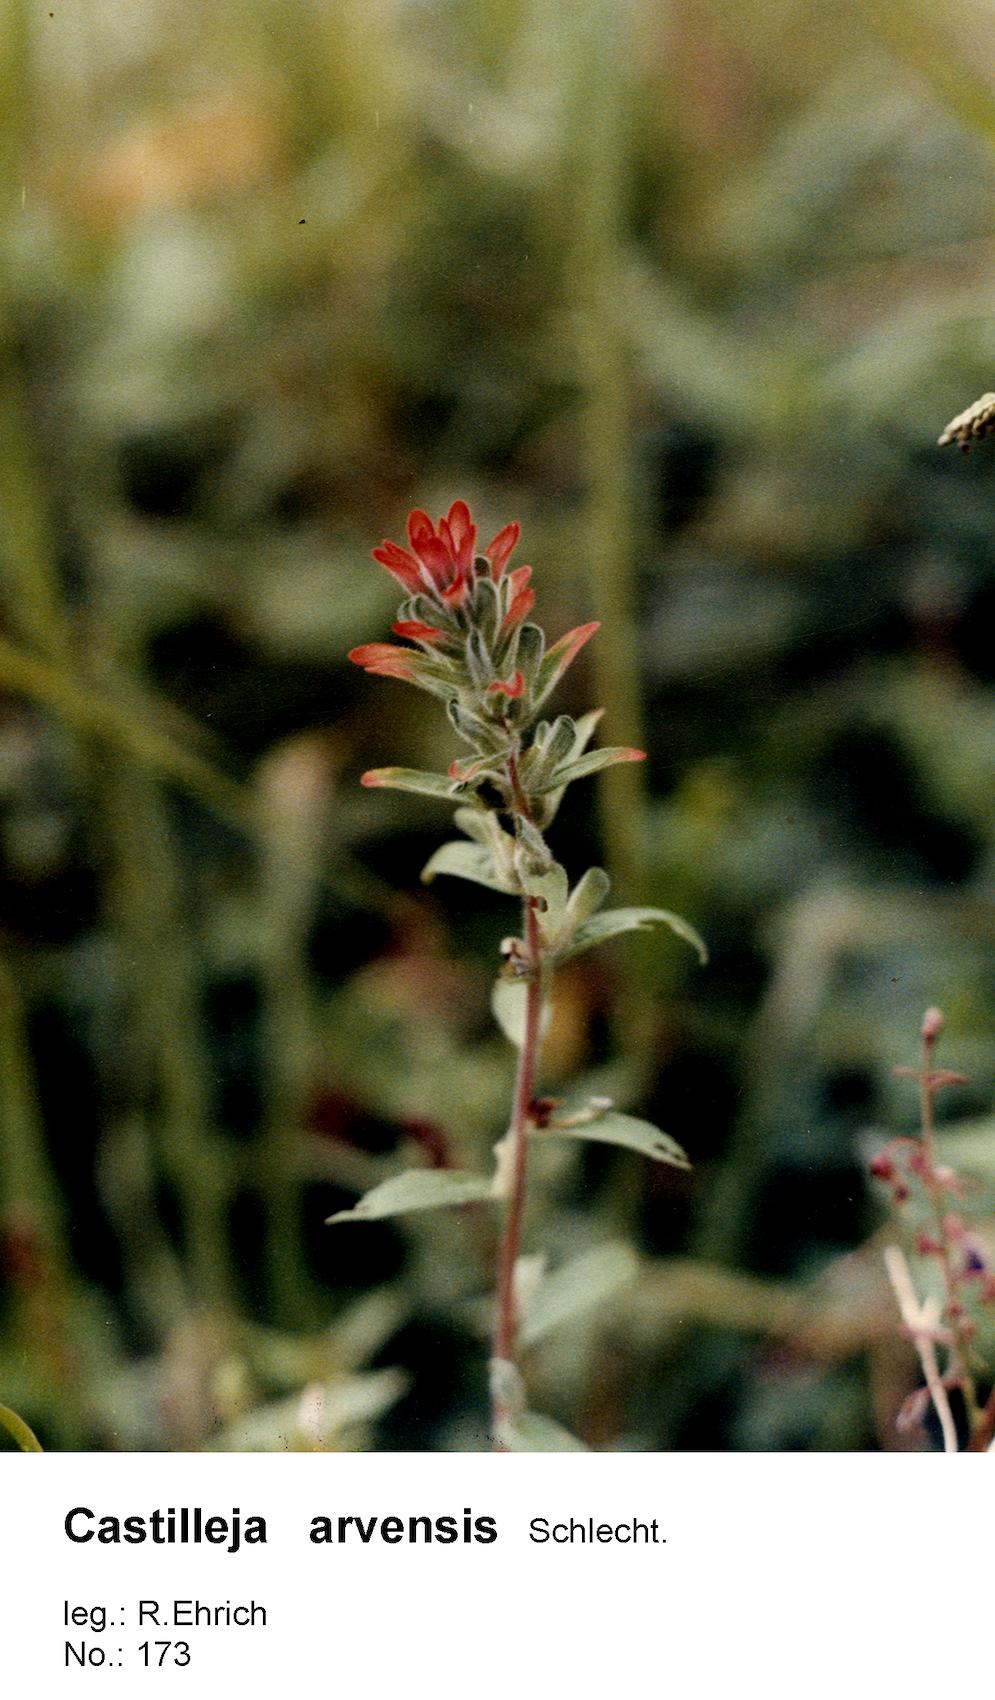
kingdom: Plantae
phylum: Tracheophyta
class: Magnoliopsida
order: Lamiales
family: Orobanchaceae
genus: Castilleja
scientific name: Castilleja arvensis
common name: Indian paintbrush
